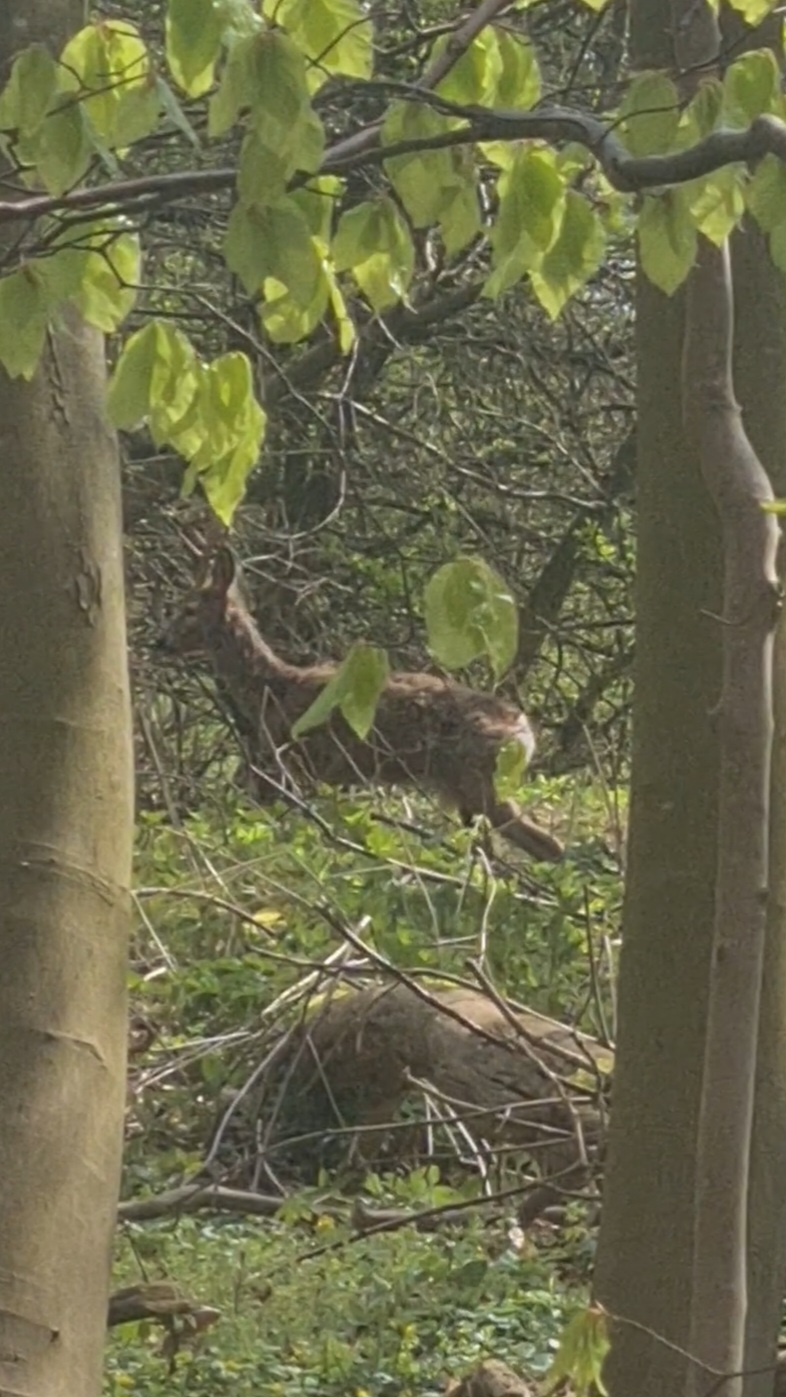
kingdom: Animalia
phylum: Chordata
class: Mammalia
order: Artiodactyla
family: Cervidae
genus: Capreolus
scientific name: Capreolus capreolus
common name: Rådyr
